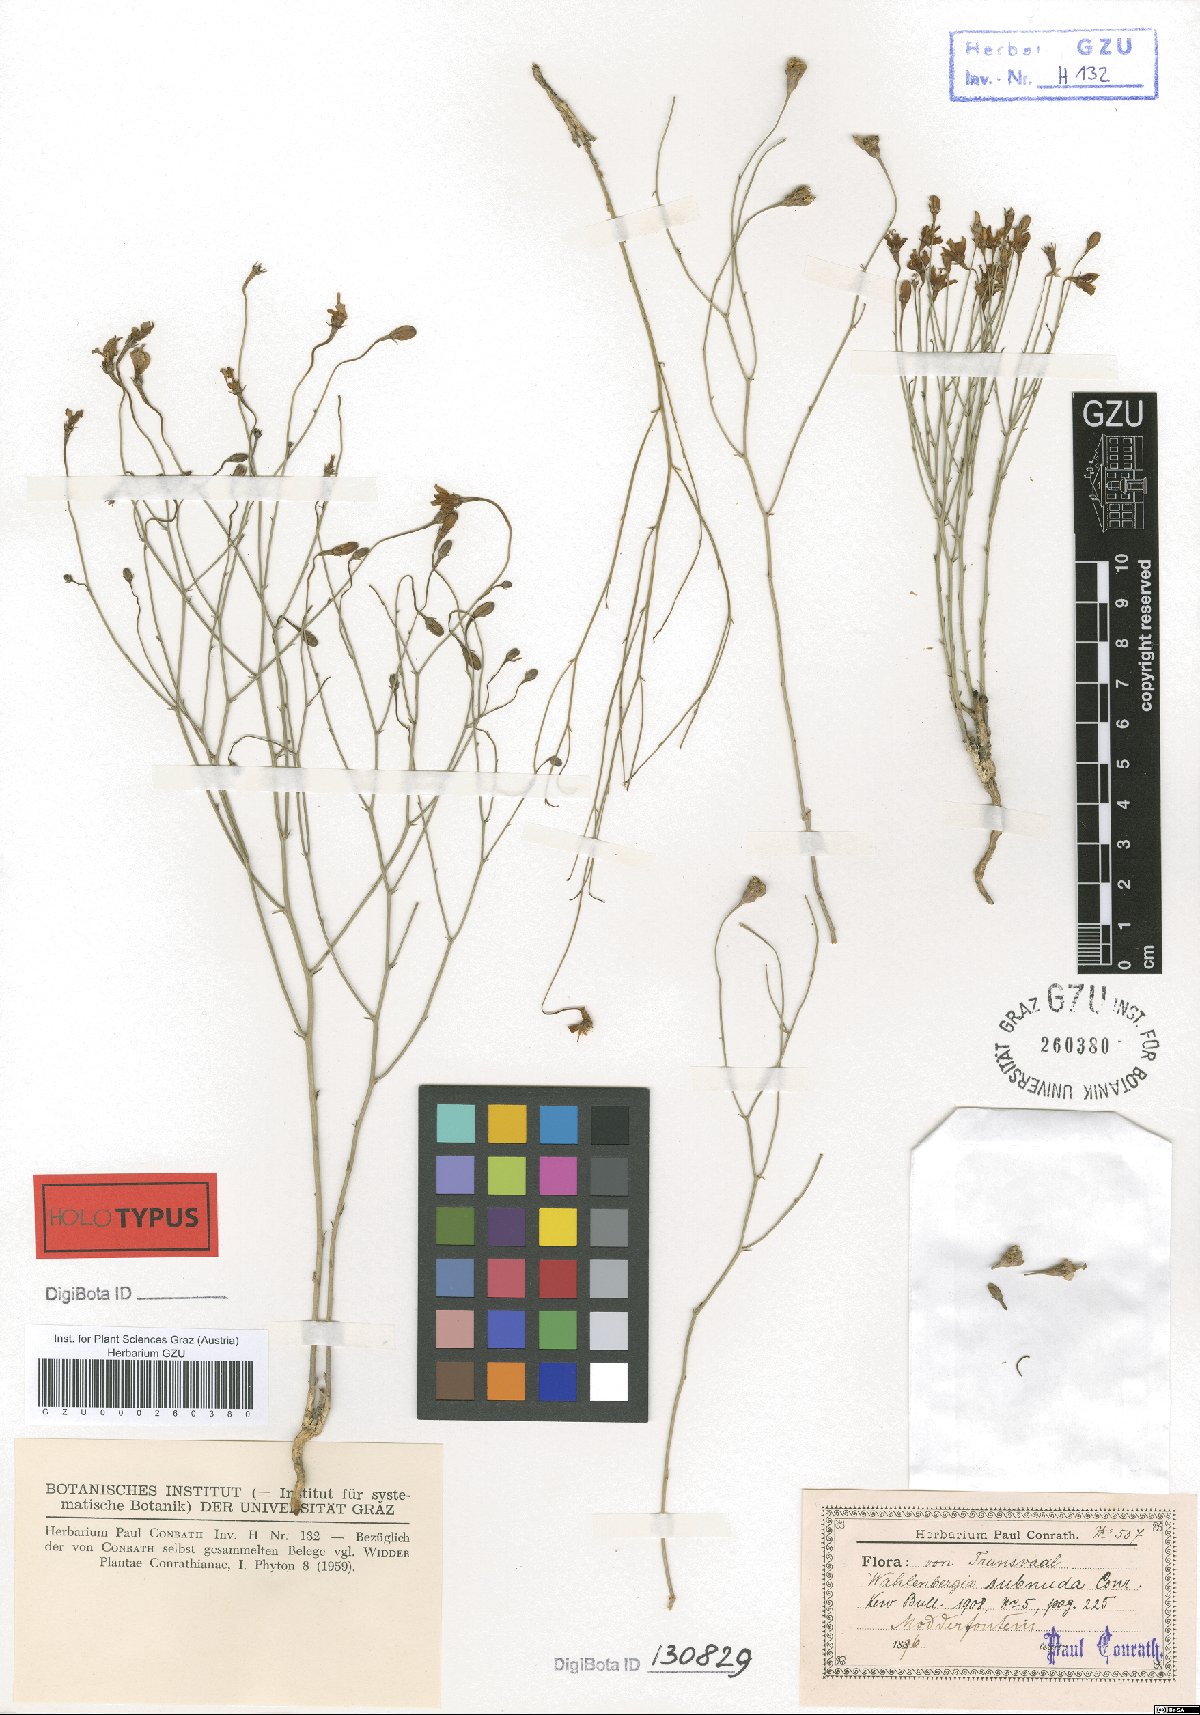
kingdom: Plantae
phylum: Tracheophyta
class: Magnoliopsida
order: Asterales
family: Campanulaceae
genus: Wahlenbergia
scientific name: Wahlenbergia virgata
